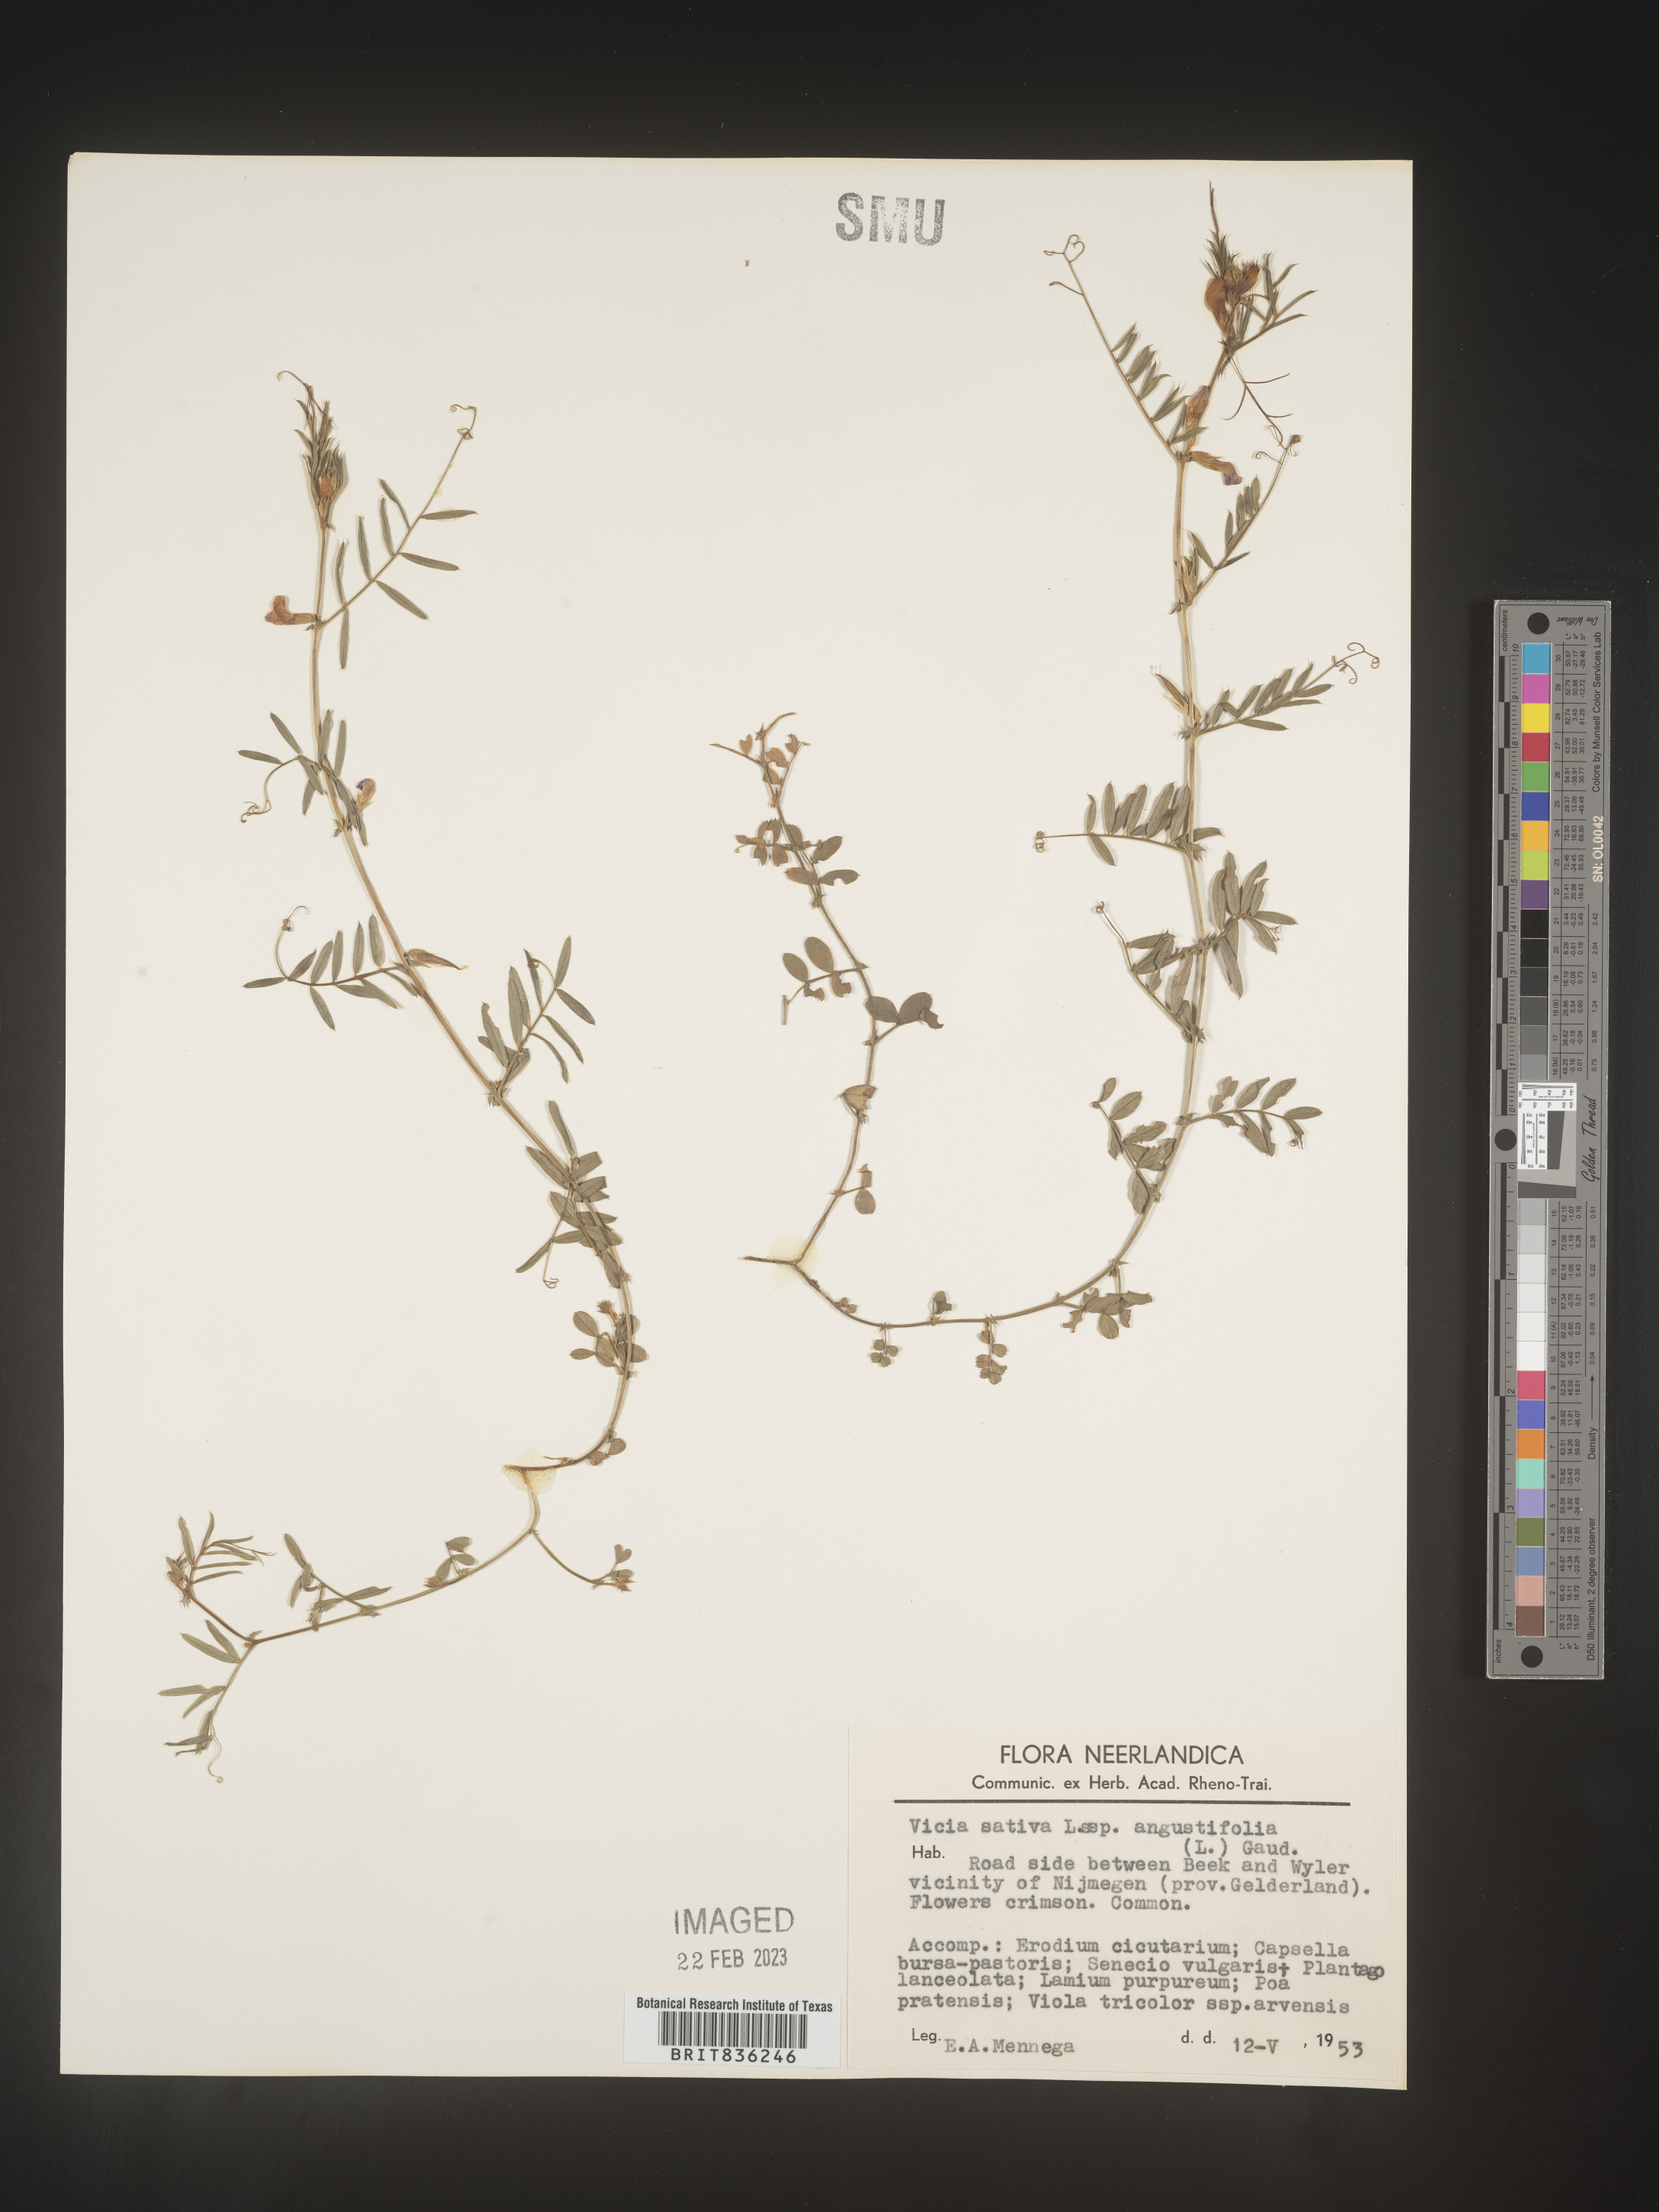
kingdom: Plantae
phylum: Tracheophyta
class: Magnoliopsida
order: Fabales
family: Fabaceae
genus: Vicia
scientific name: Vicia
